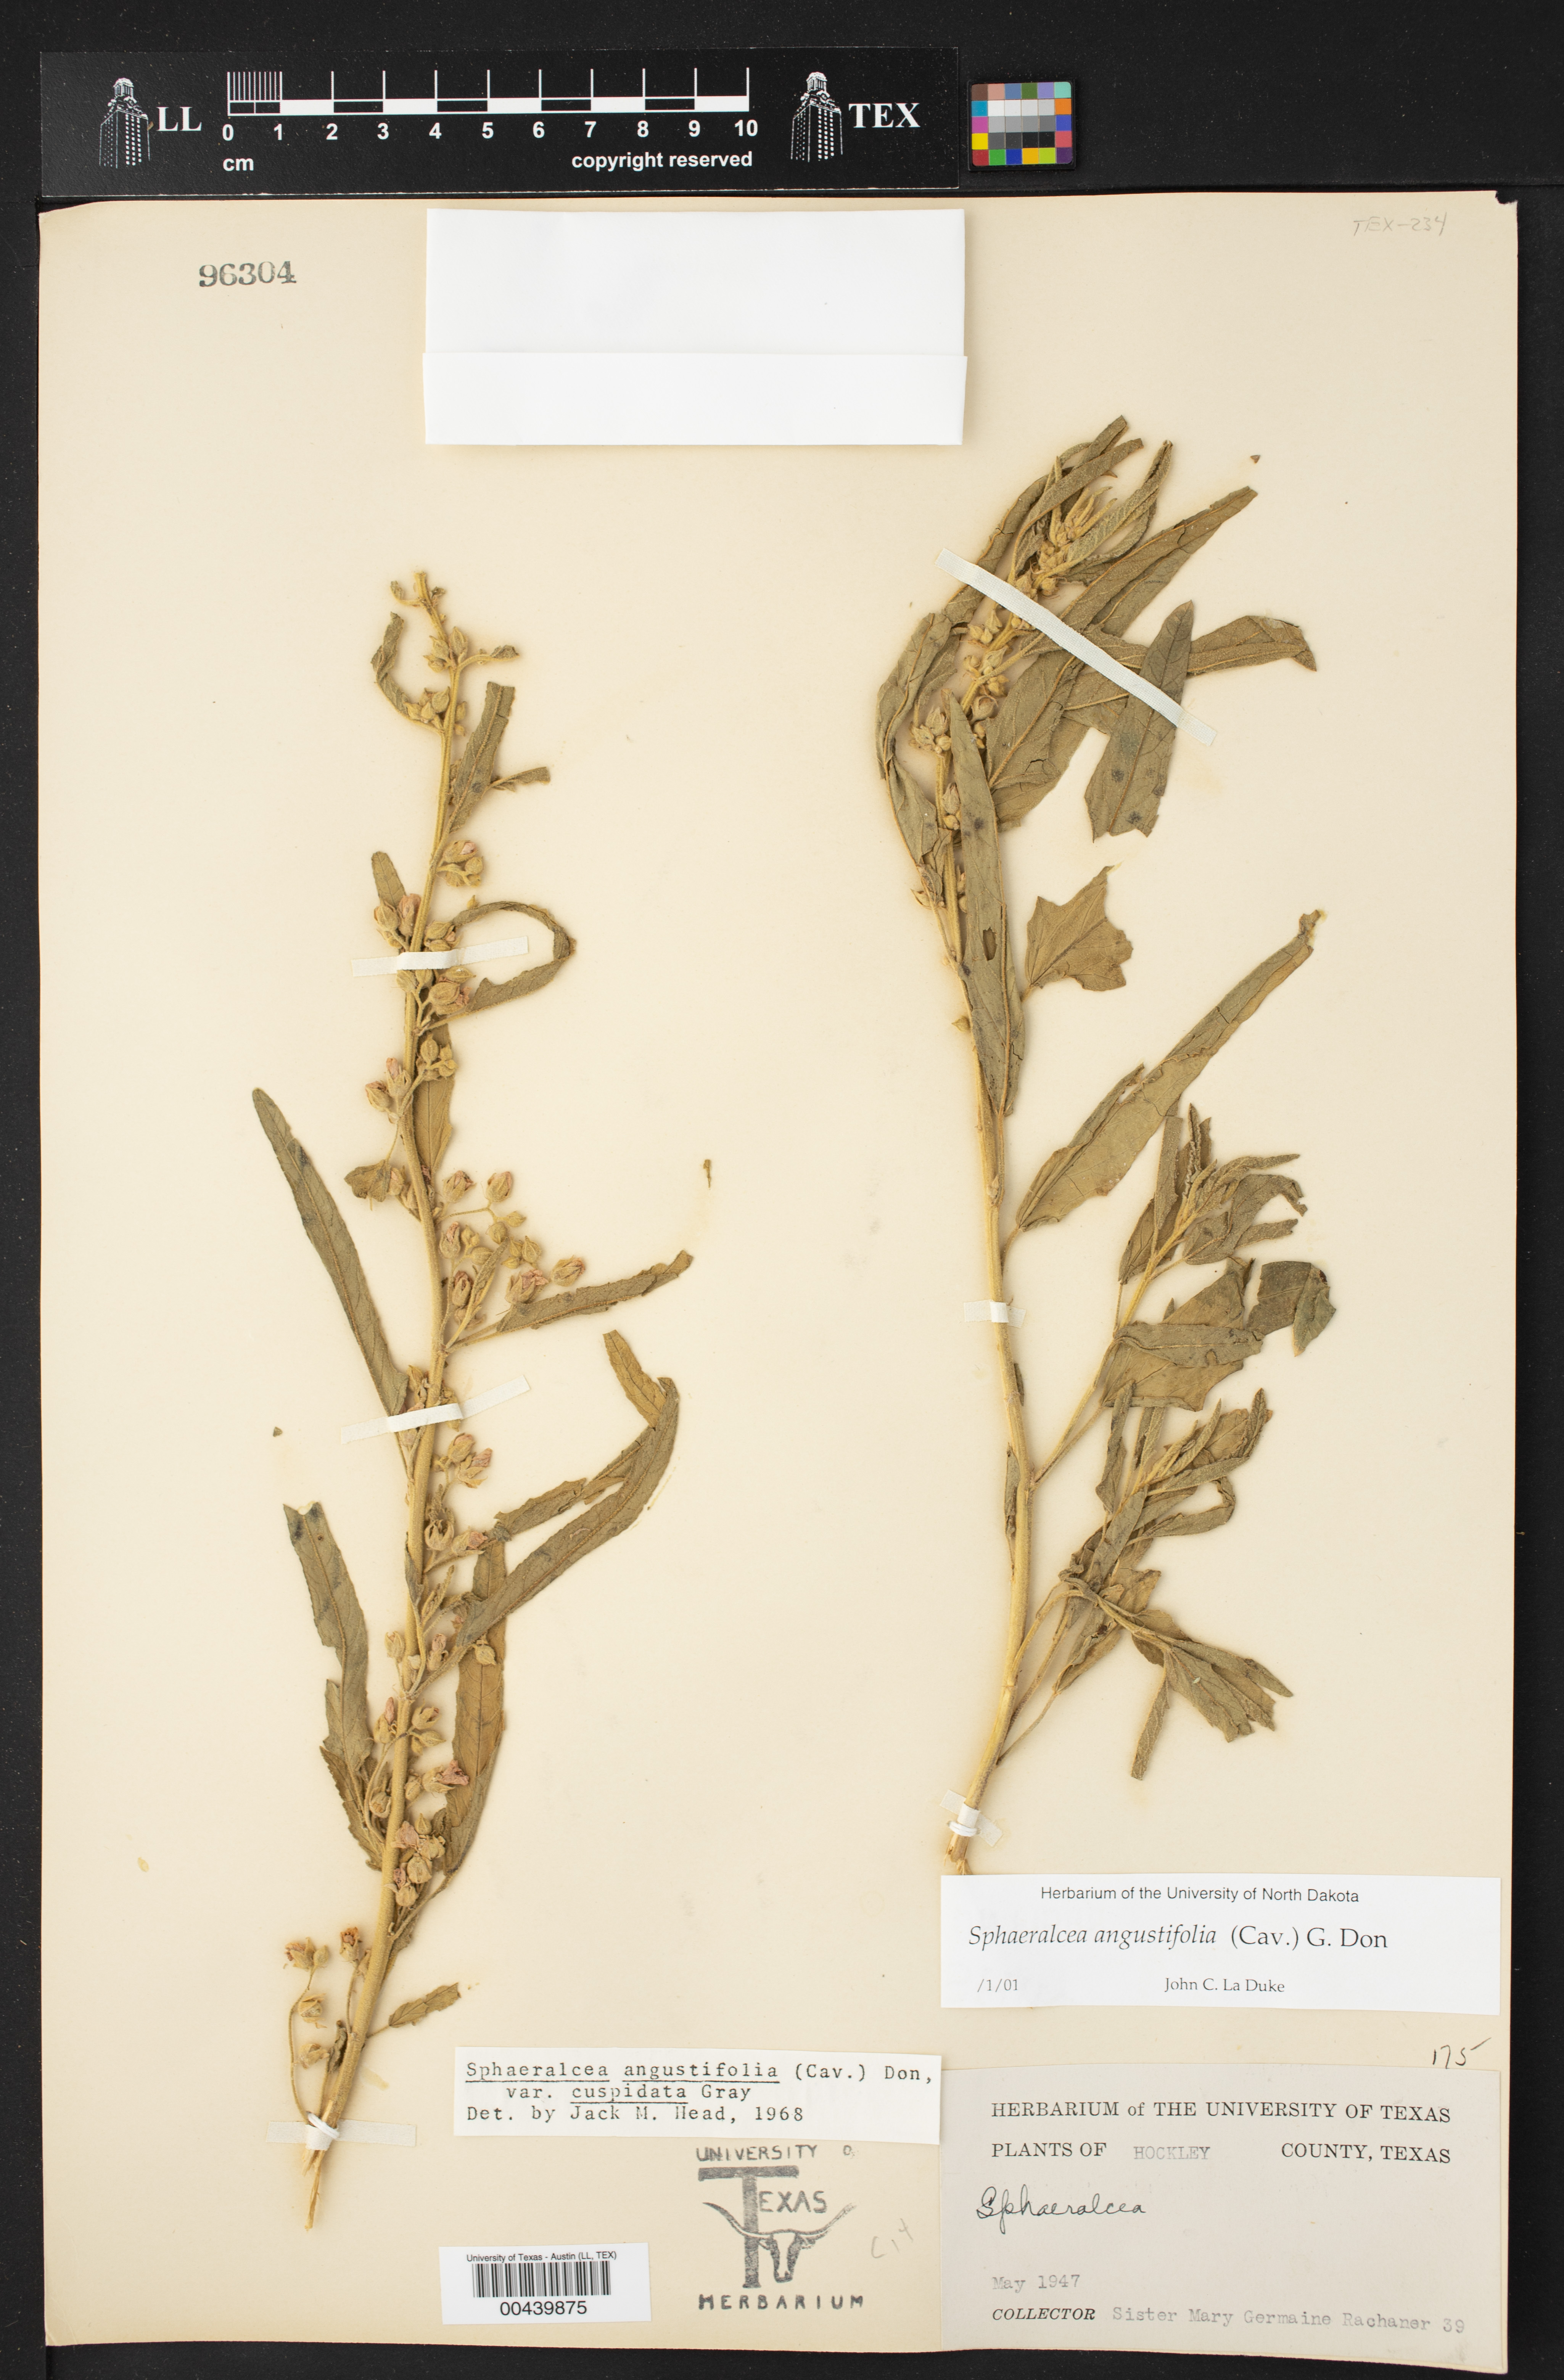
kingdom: Plantae
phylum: Tracheophyta
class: Magnoliopsida
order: Malvales
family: Malvaceae
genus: Sphaeralcea
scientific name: Sphaeralcea angustifolia
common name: Copper globe-mallow
